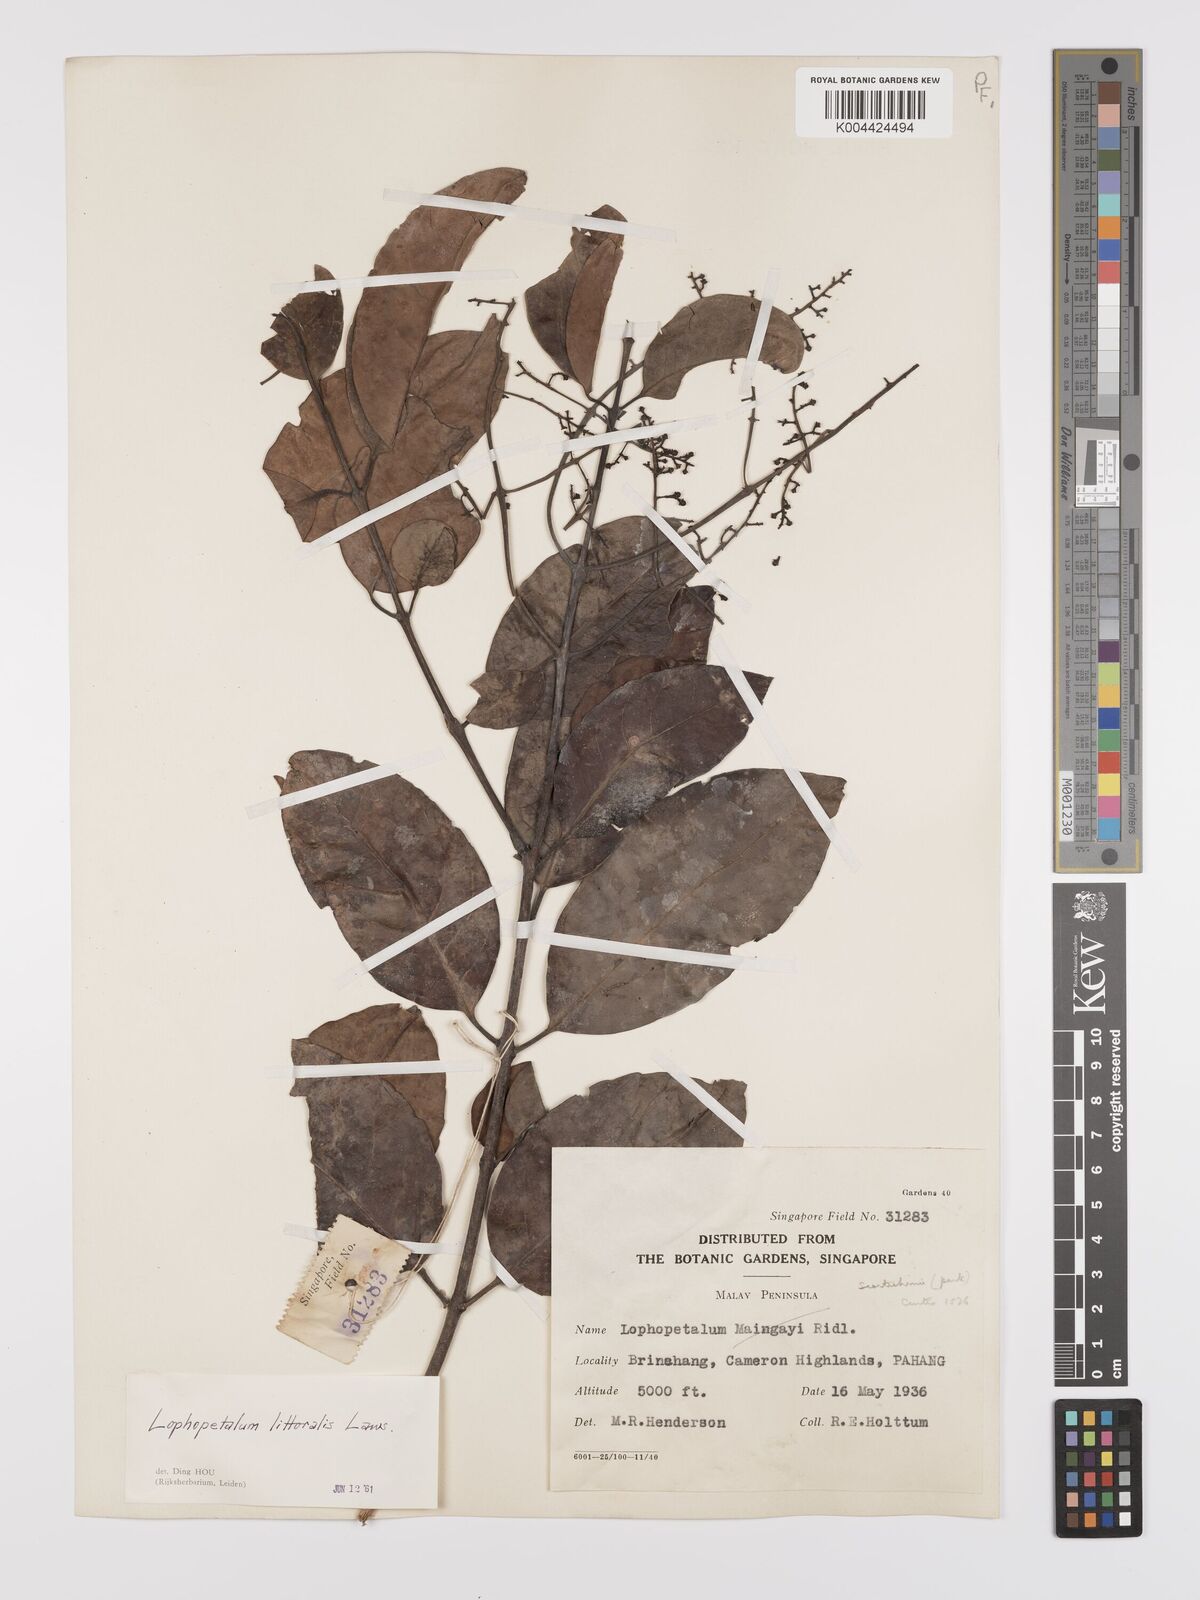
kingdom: Plantae
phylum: Tracheophyta
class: Magnoliopsida
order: Celastrales
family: Celastraceae
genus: Kokoona
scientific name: Kokoona littoralis
